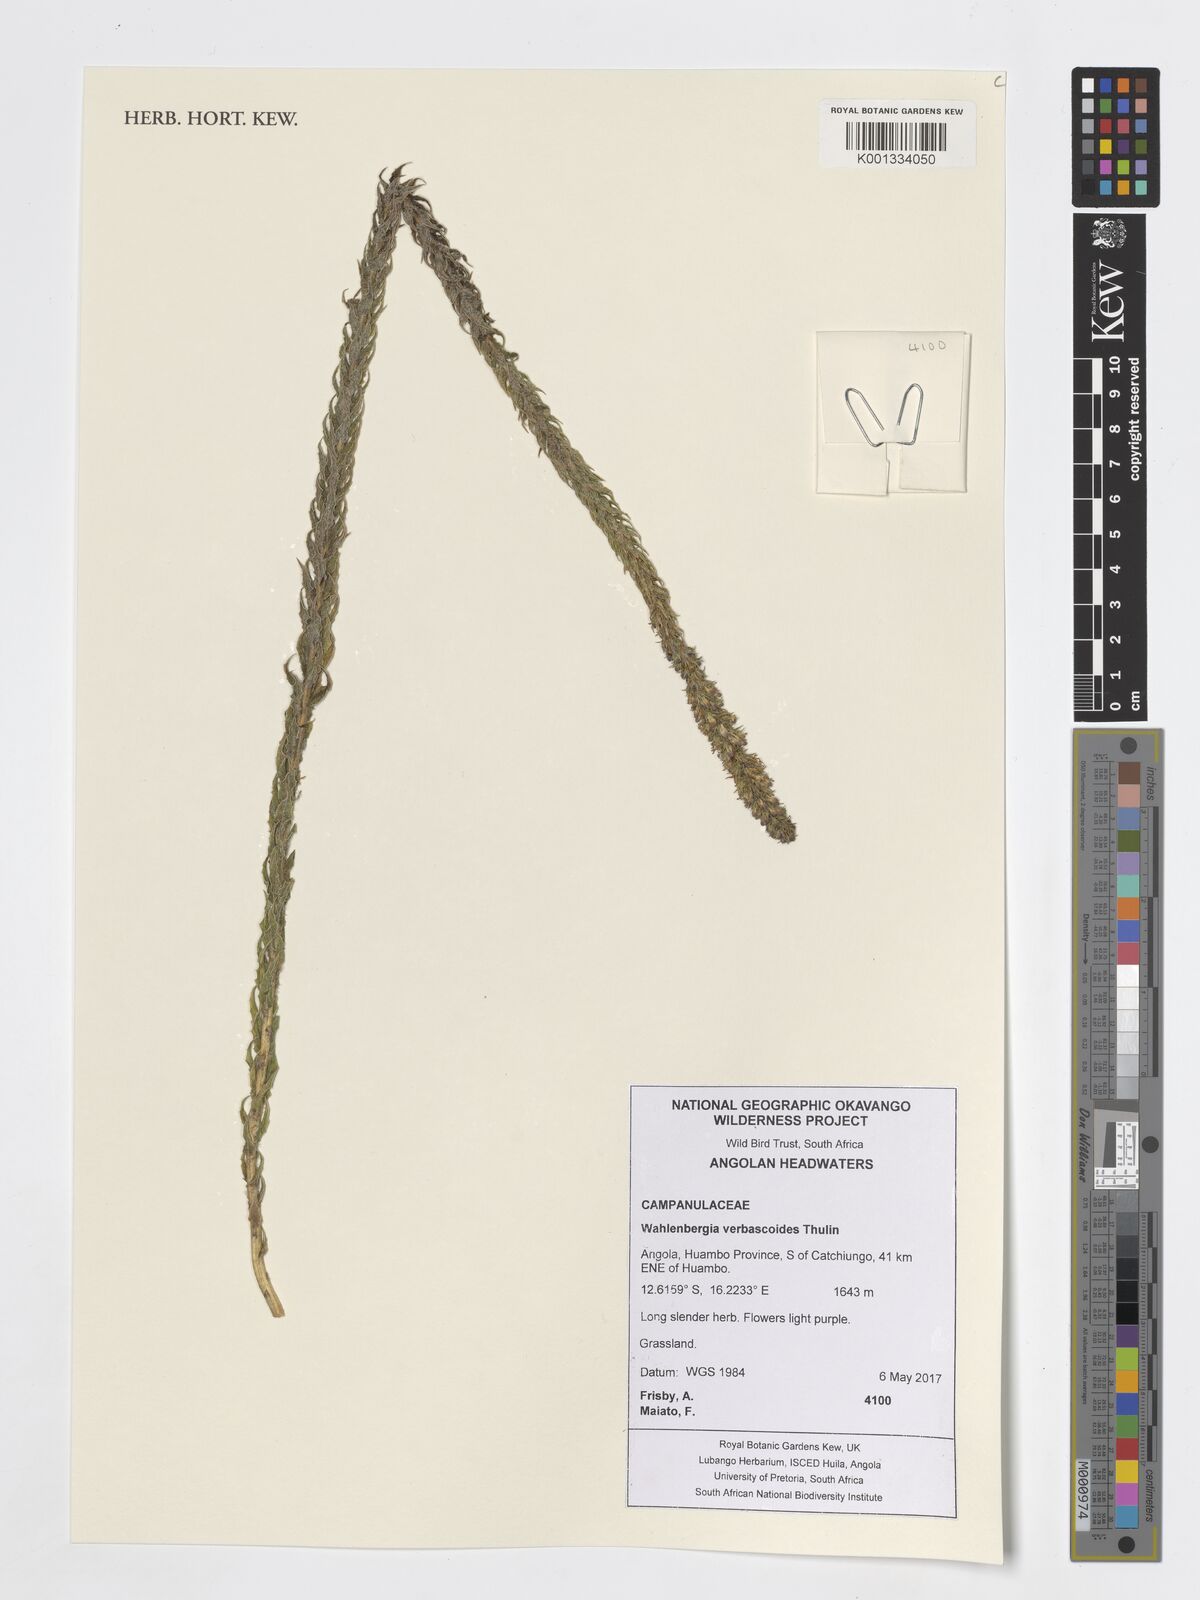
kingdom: Plantae
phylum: Tracheophyta
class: Magnoliopsida
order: Asterales
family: Campanulaceae
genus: Wahlenbergia
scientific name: Wahlenbergia verbascoides
